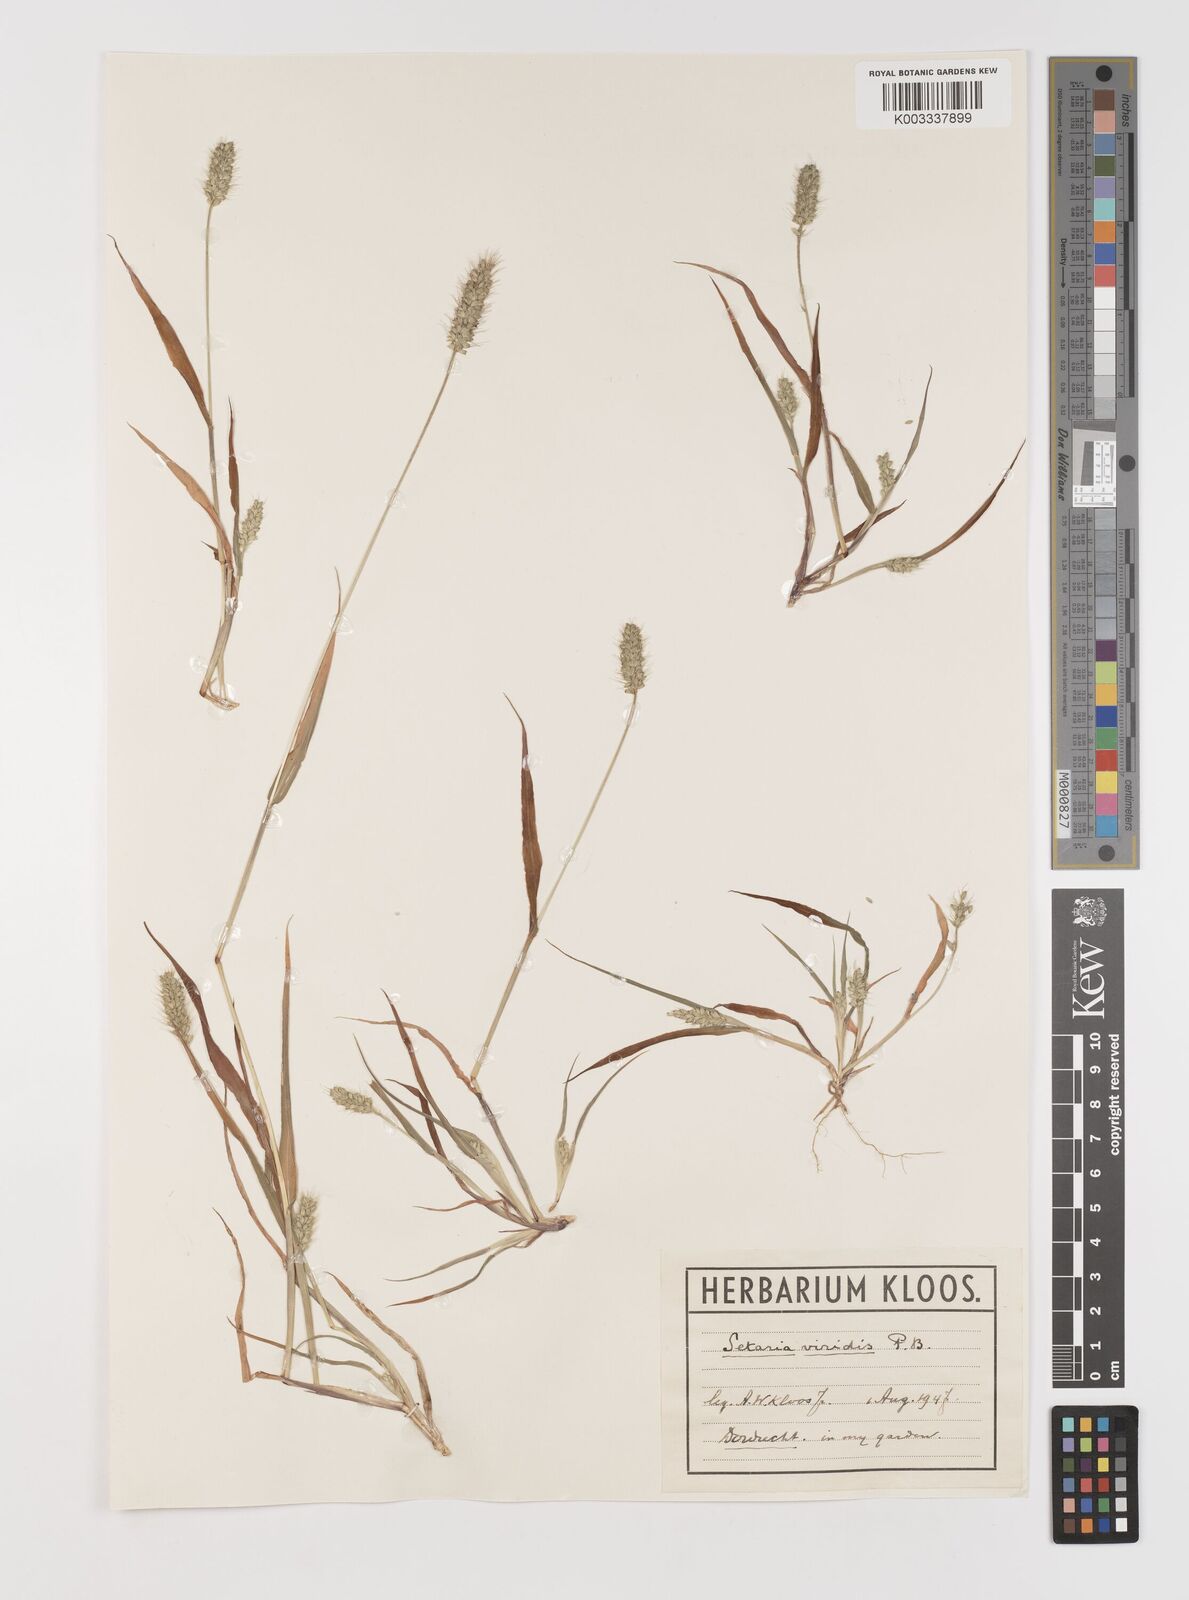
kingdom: Plantae
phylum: Tracheophyta
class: Liliopsida
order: Poales
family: Poaceae
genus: Setaria
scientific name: Setaria viridis
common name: Green bristlegrass
